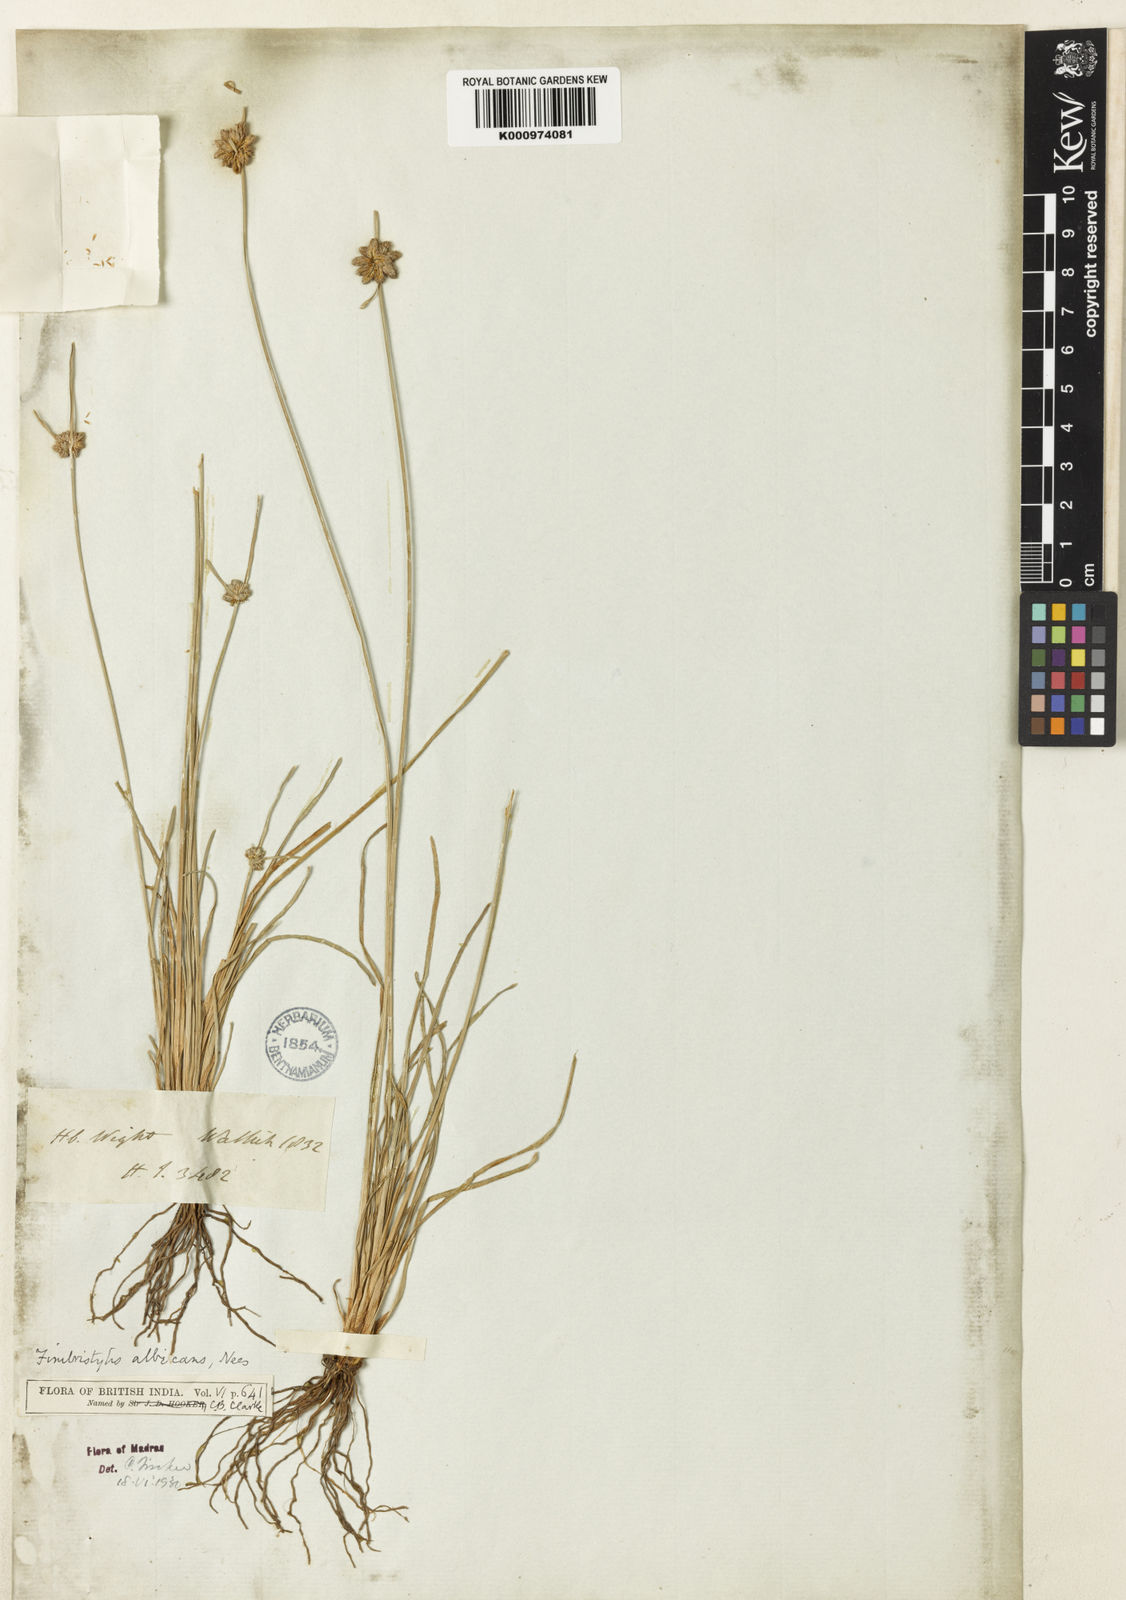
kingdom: Plantae
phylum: Tracheophyta
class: Liliopsida
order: Poales
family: Cyperaceae
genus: Fimbristylis
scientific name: Fimbristylis albicans
